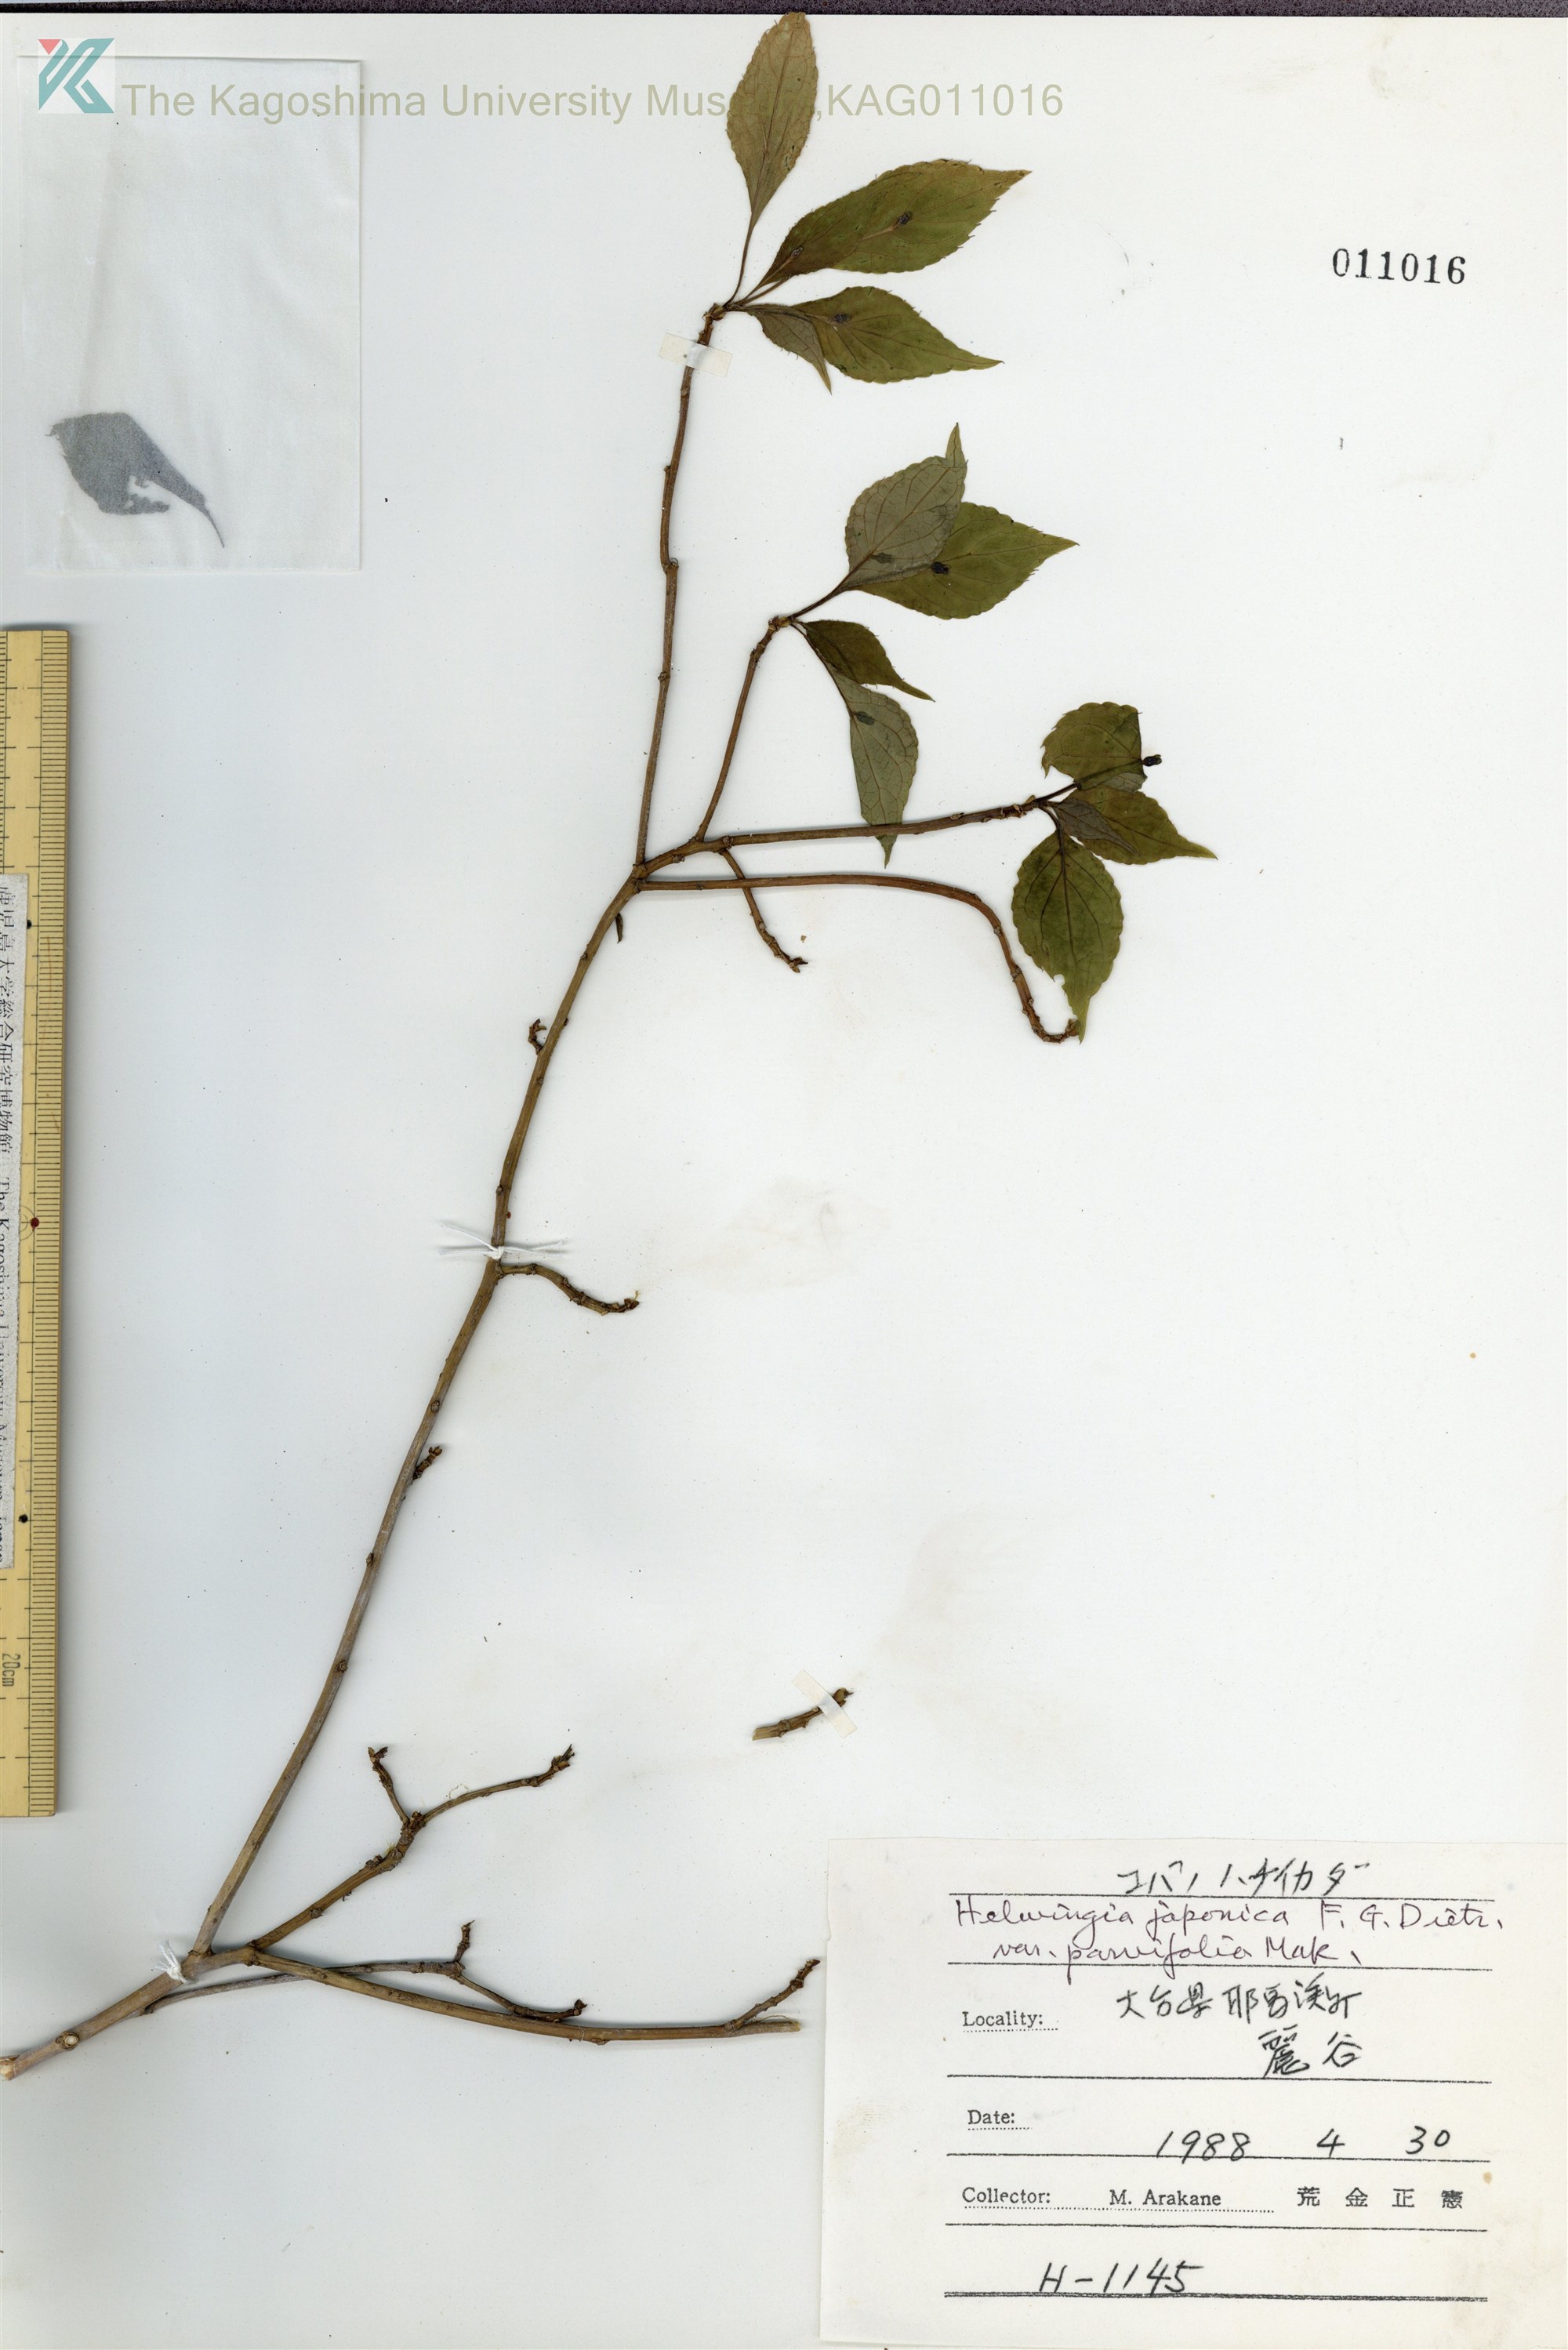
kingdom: Plantae
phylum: Tracheophyta
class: Magnoliopsida
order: Aquifoliales
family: Helwingiaceae
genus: Helwingia
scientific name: Helwingia japonica
